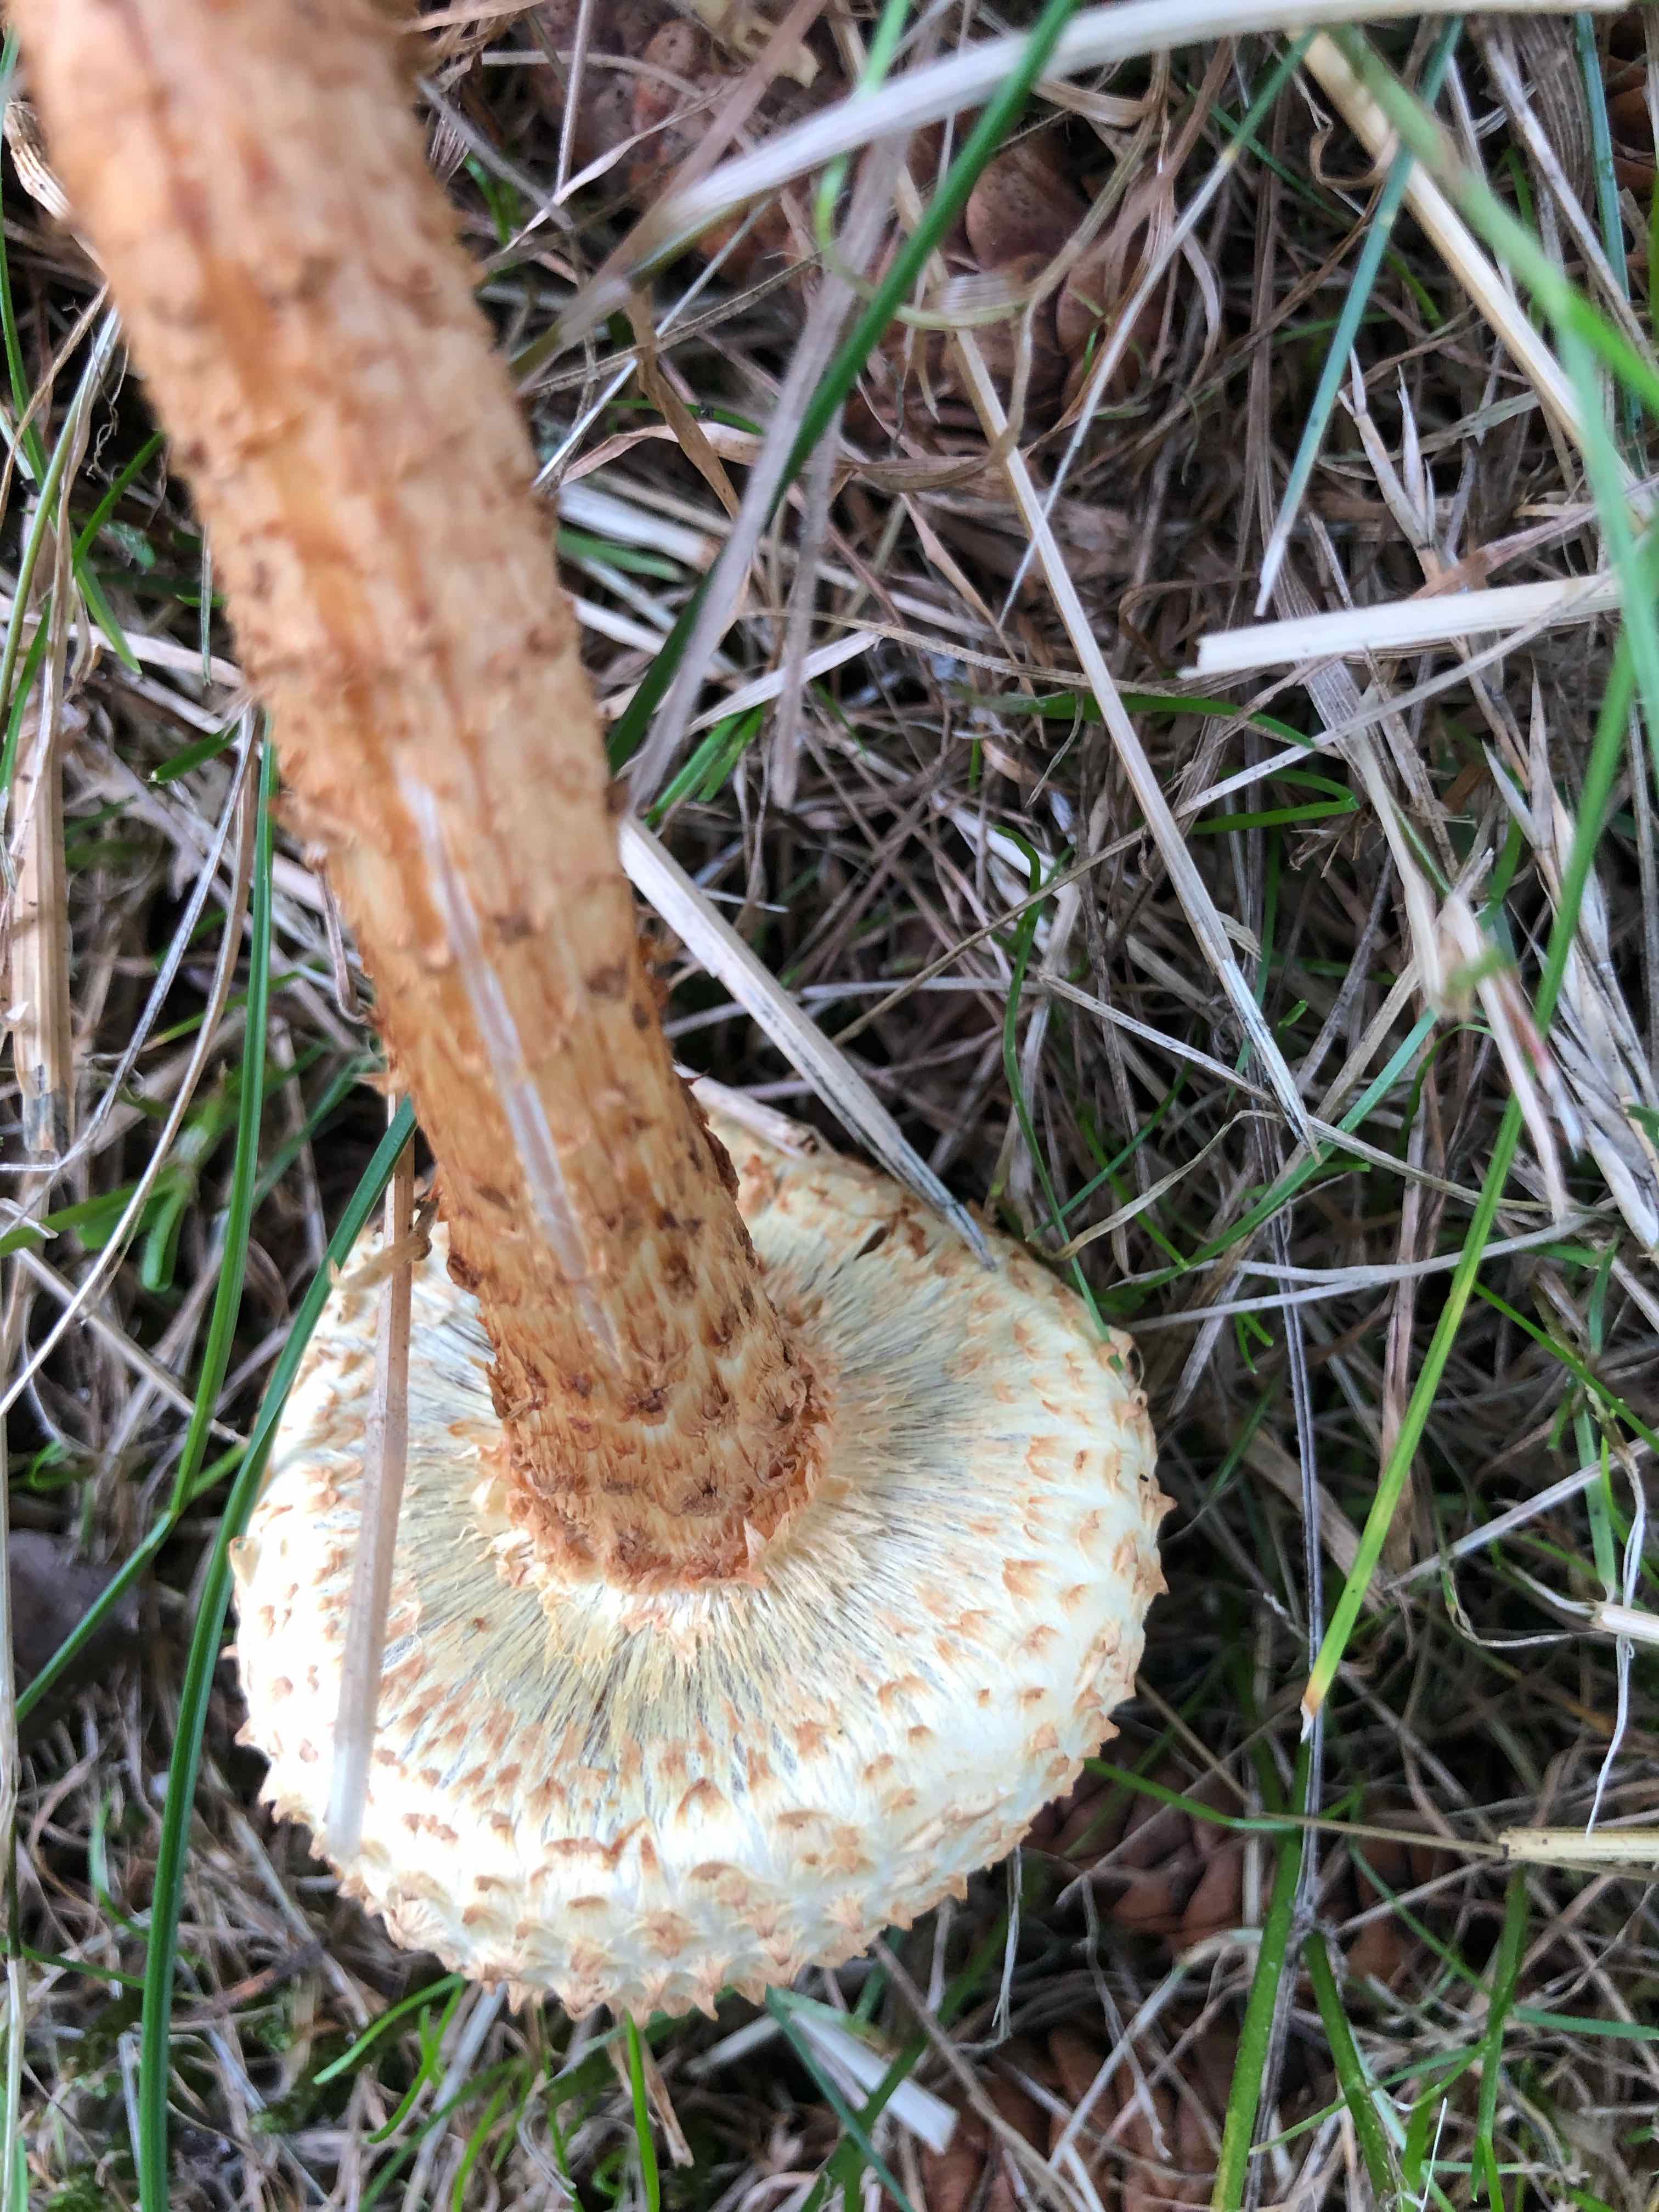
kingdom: Fungi
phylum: Basidiomycota
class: Agaricomycetes
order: Agaricales
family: Strophariaceae
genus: Pholiota
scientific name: Pholiota squarrosa
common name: krumskællet skælhat
